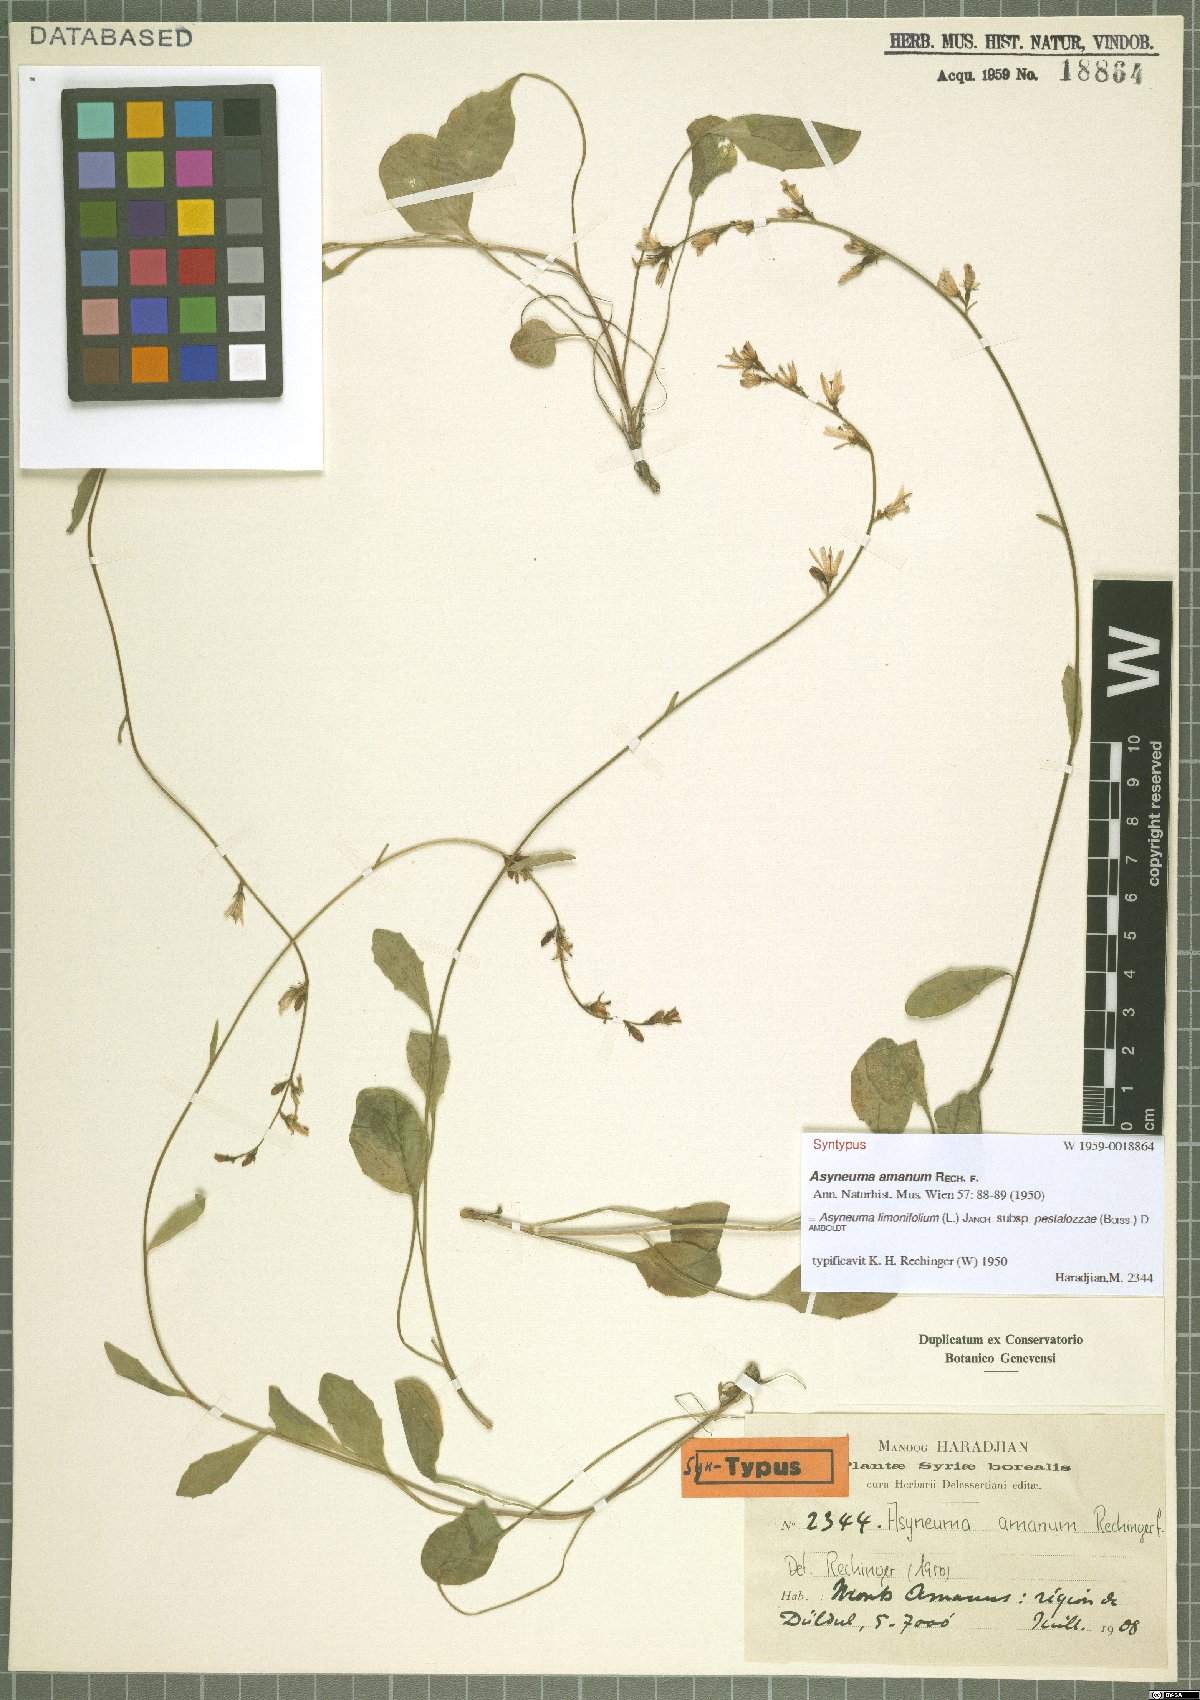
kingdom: Plantae
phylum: Tracheophyta
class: Magnoliopsida
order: Asterales
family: Campanulaceae
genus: Asyneuma
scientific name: Asyneuma limonifolium
